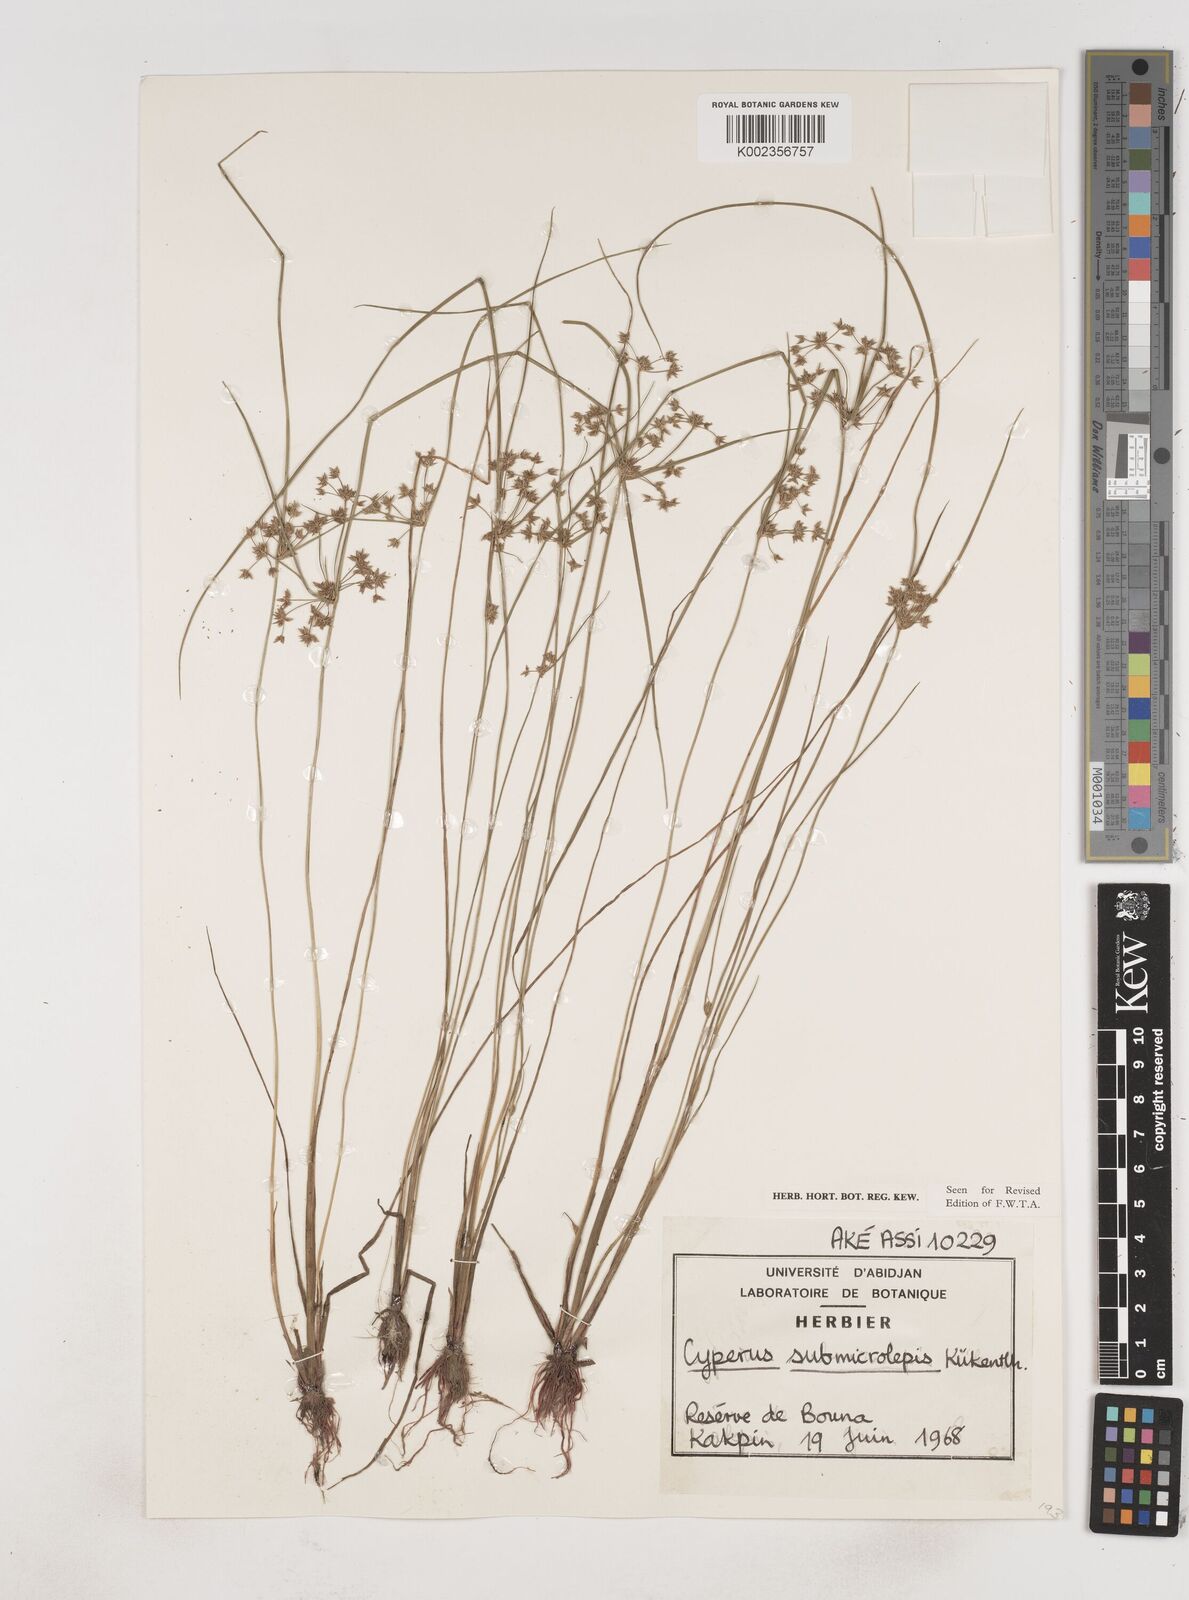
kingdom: Plantae
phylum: Tracheophyta
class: Liliopsida
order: Poales
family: Cyperaceae
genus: Cyperus
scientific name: Cyperus submicrolepis
